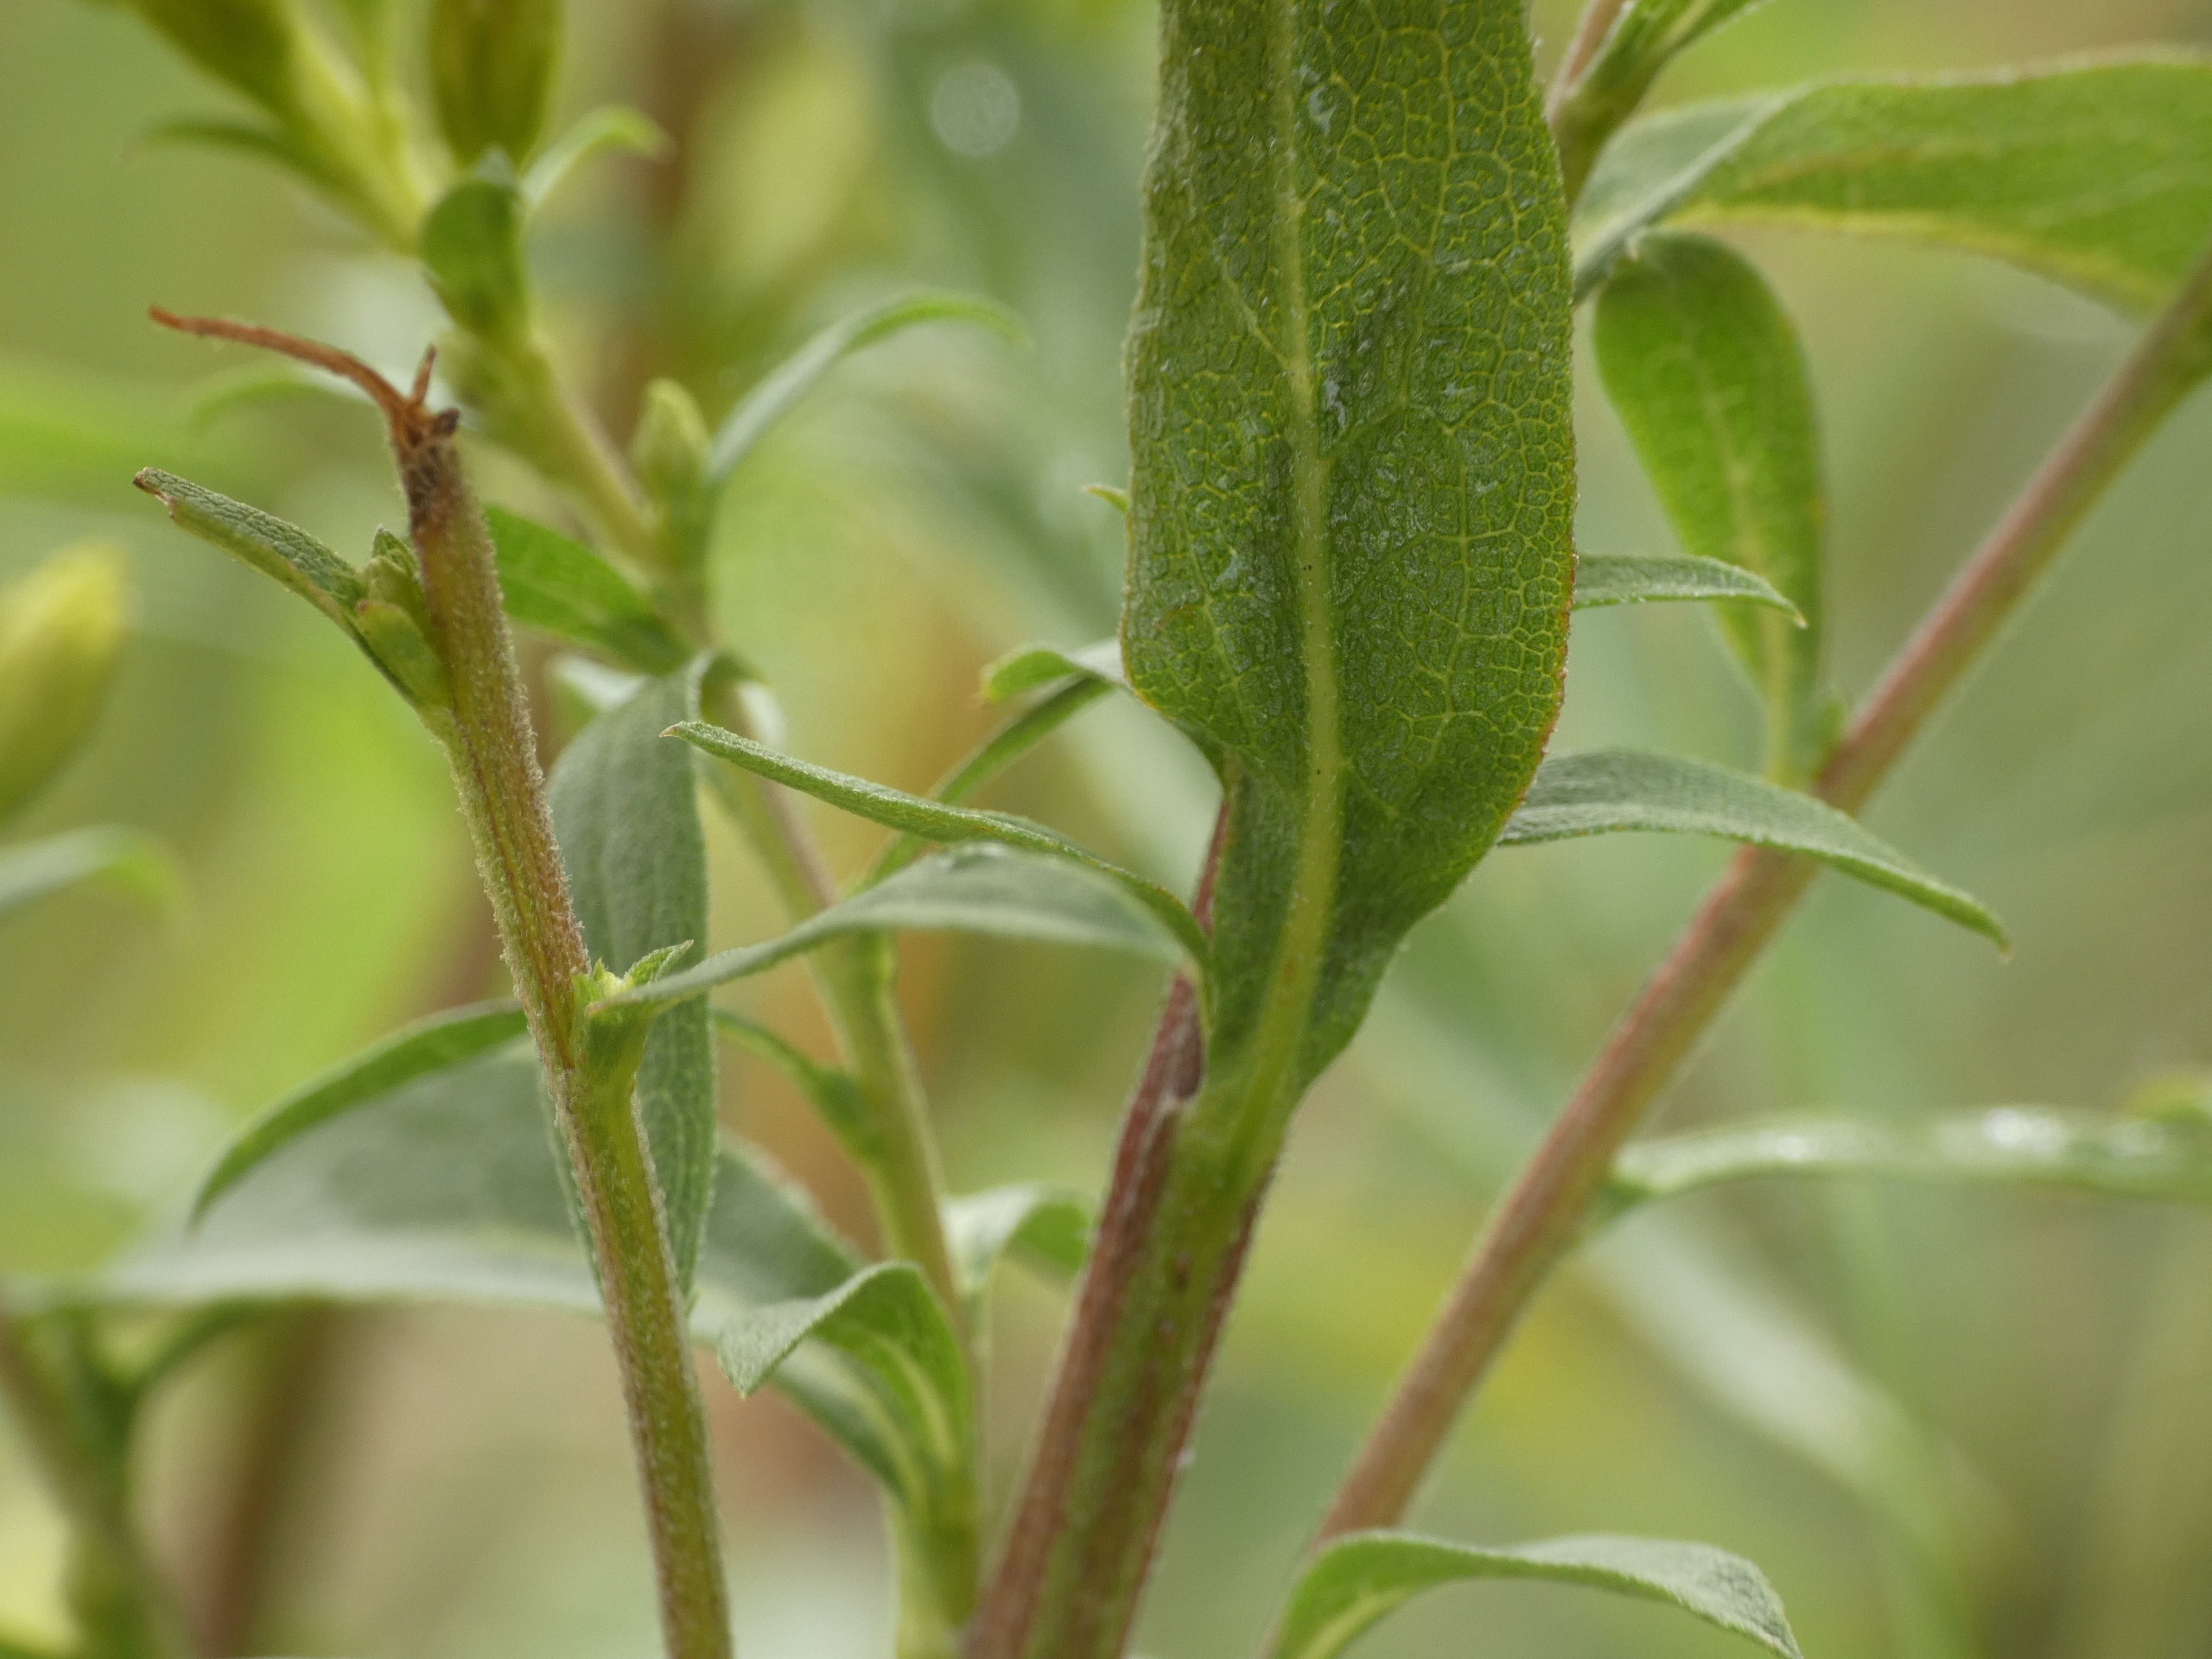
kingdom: Plantae
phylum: Tracheophyta
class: Magnoliopsida
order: Asterales
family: Asteraceae
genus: Solidago
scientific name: Solidago virgaurea
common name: Almindelig gyldenris
